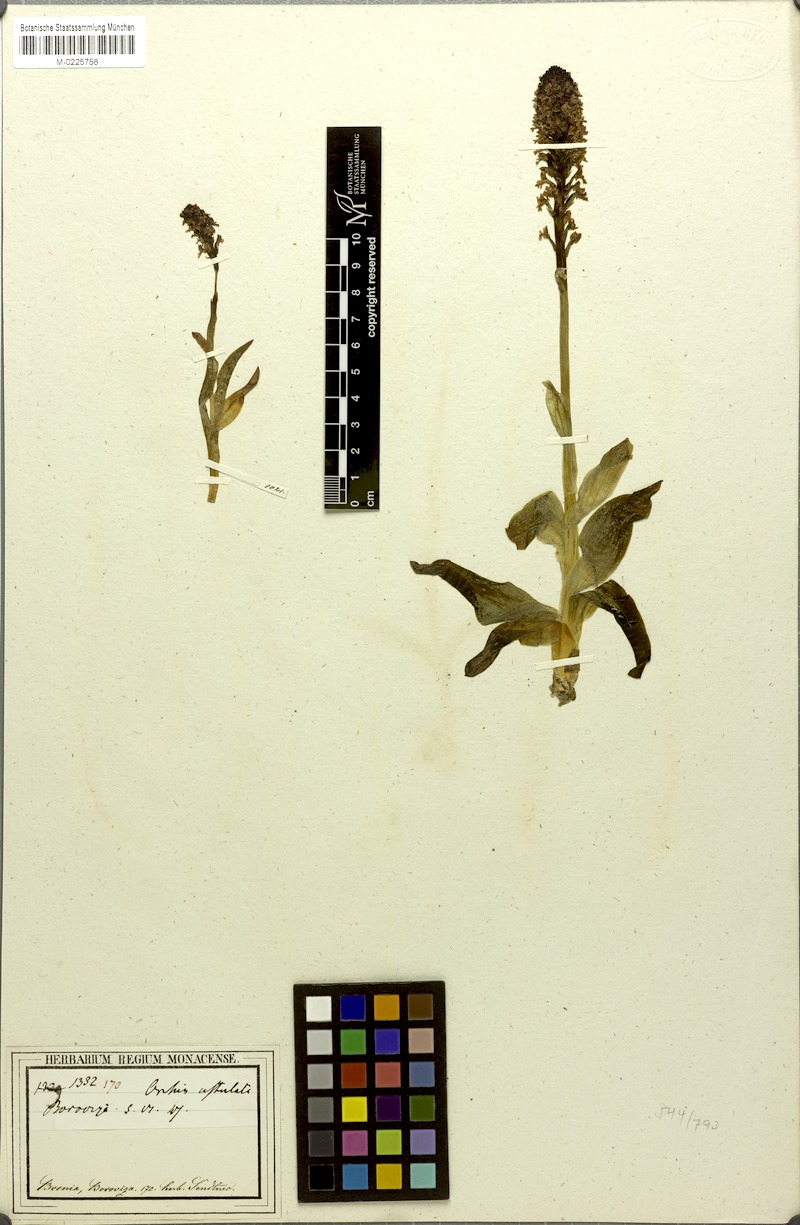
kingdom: Plantae
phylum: Tracheophyta
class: Liliopsida
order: Asparagales
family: Orchidaceae
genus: Neotinea
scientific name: Neotinea ustulata
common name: Burnt orchid
